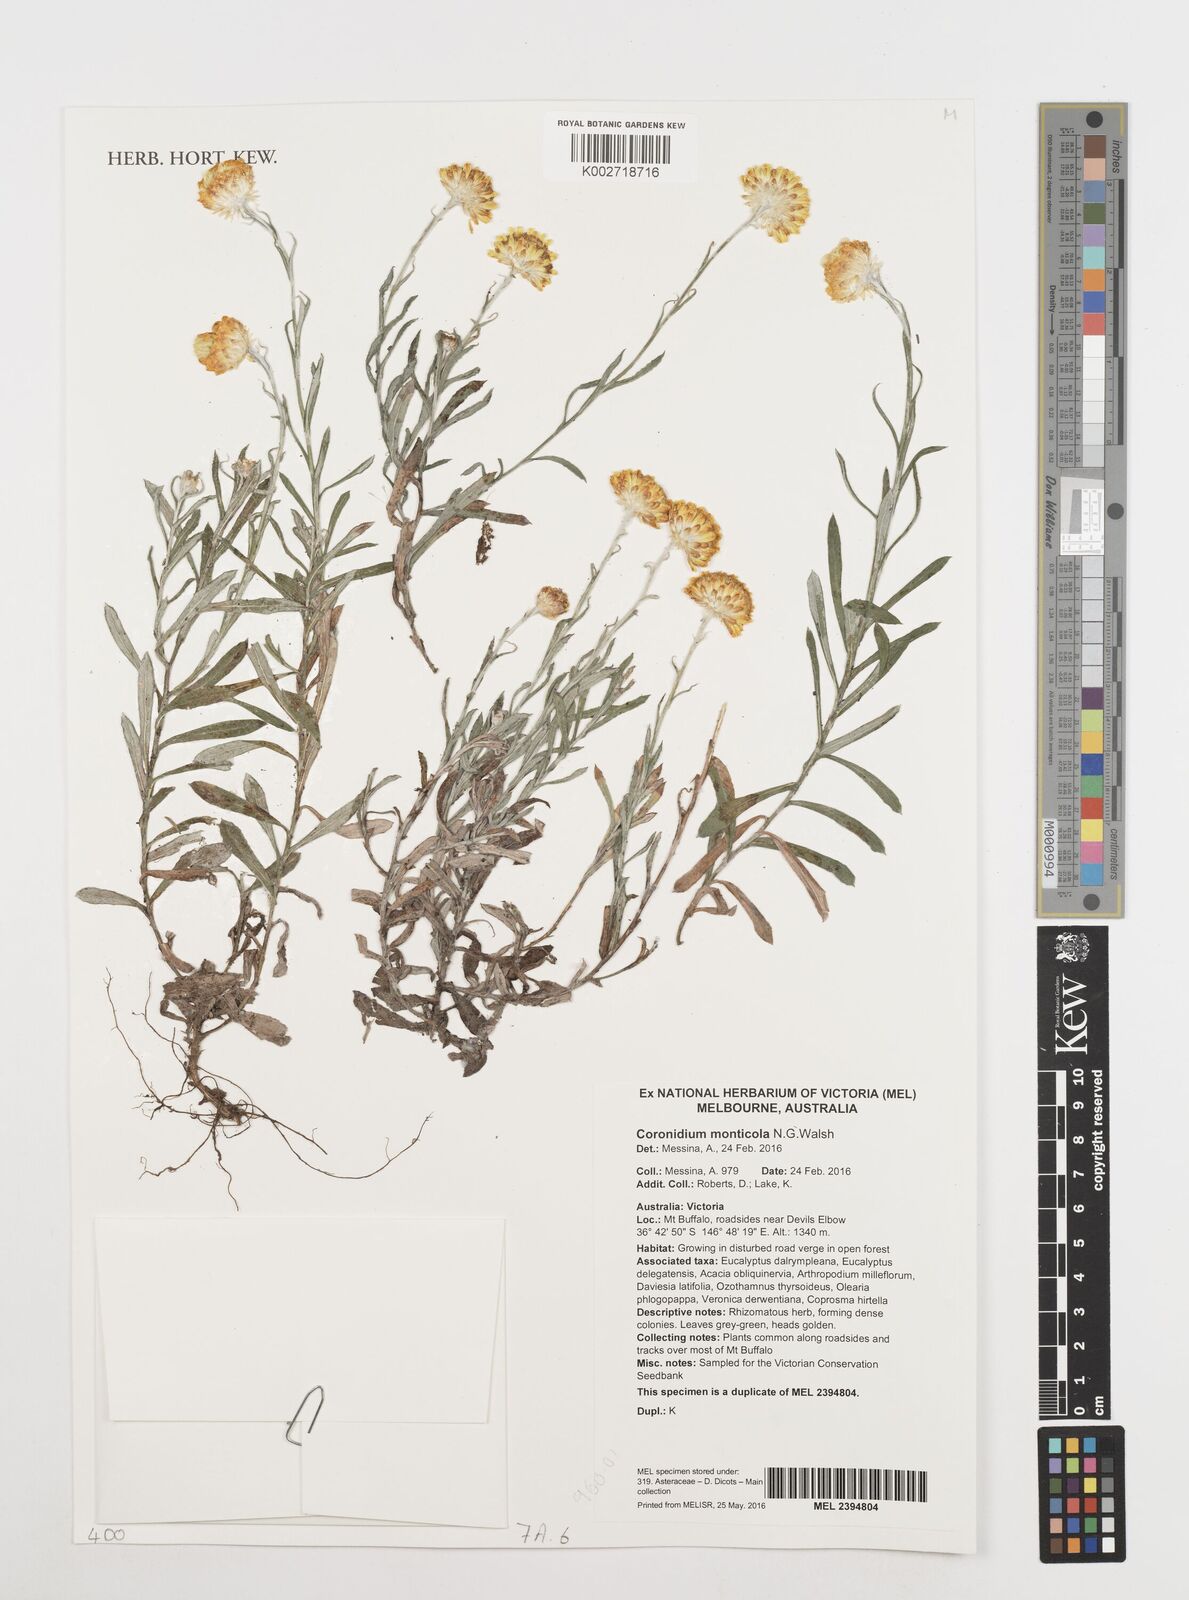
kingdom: Plantae
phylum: Tracheophyta
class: Magnoliopsida
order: Asterales
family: Asteraceae
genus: Coronidium
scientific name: Coronidium monticola
